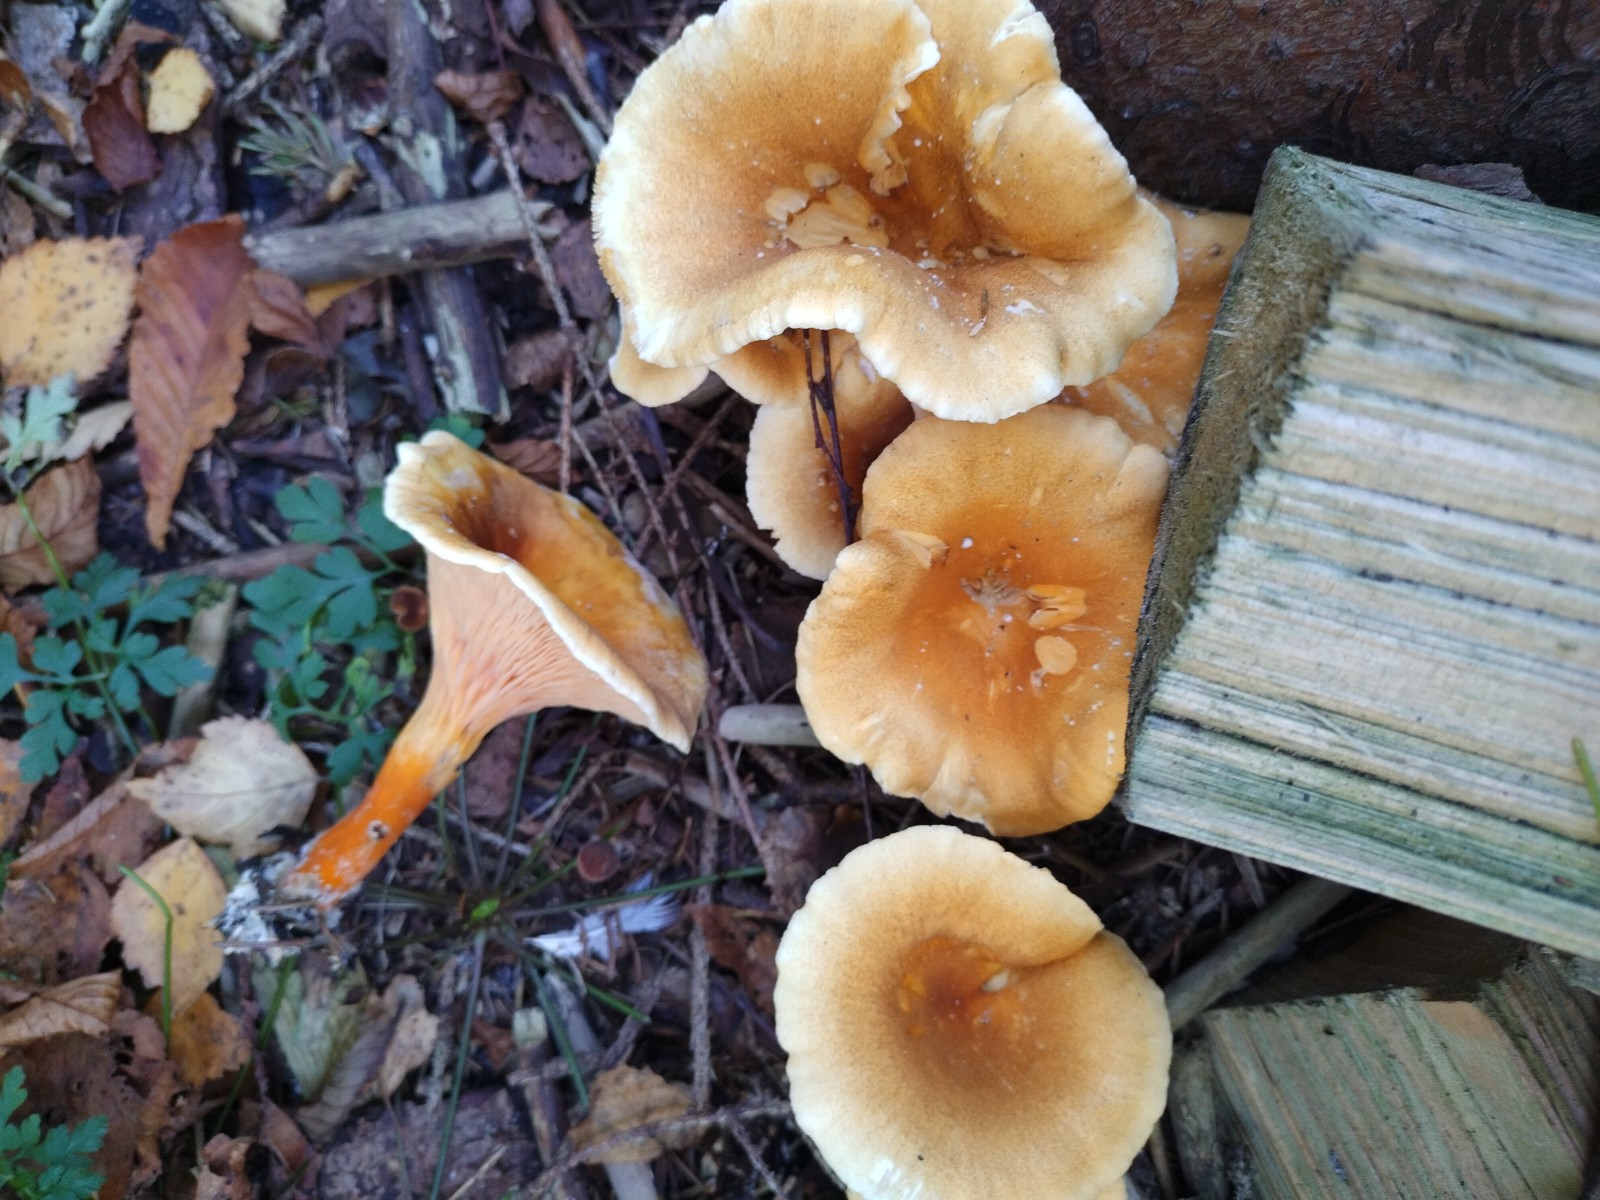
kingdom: Fungi
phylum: Basidiomycota
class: Agaricomycetes
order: Boletales
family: Hygrophoropsidaceae
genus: Hygrophoropsis
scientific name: Hygrophoropsis aurantiaca
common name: almindelig orangekantarel
